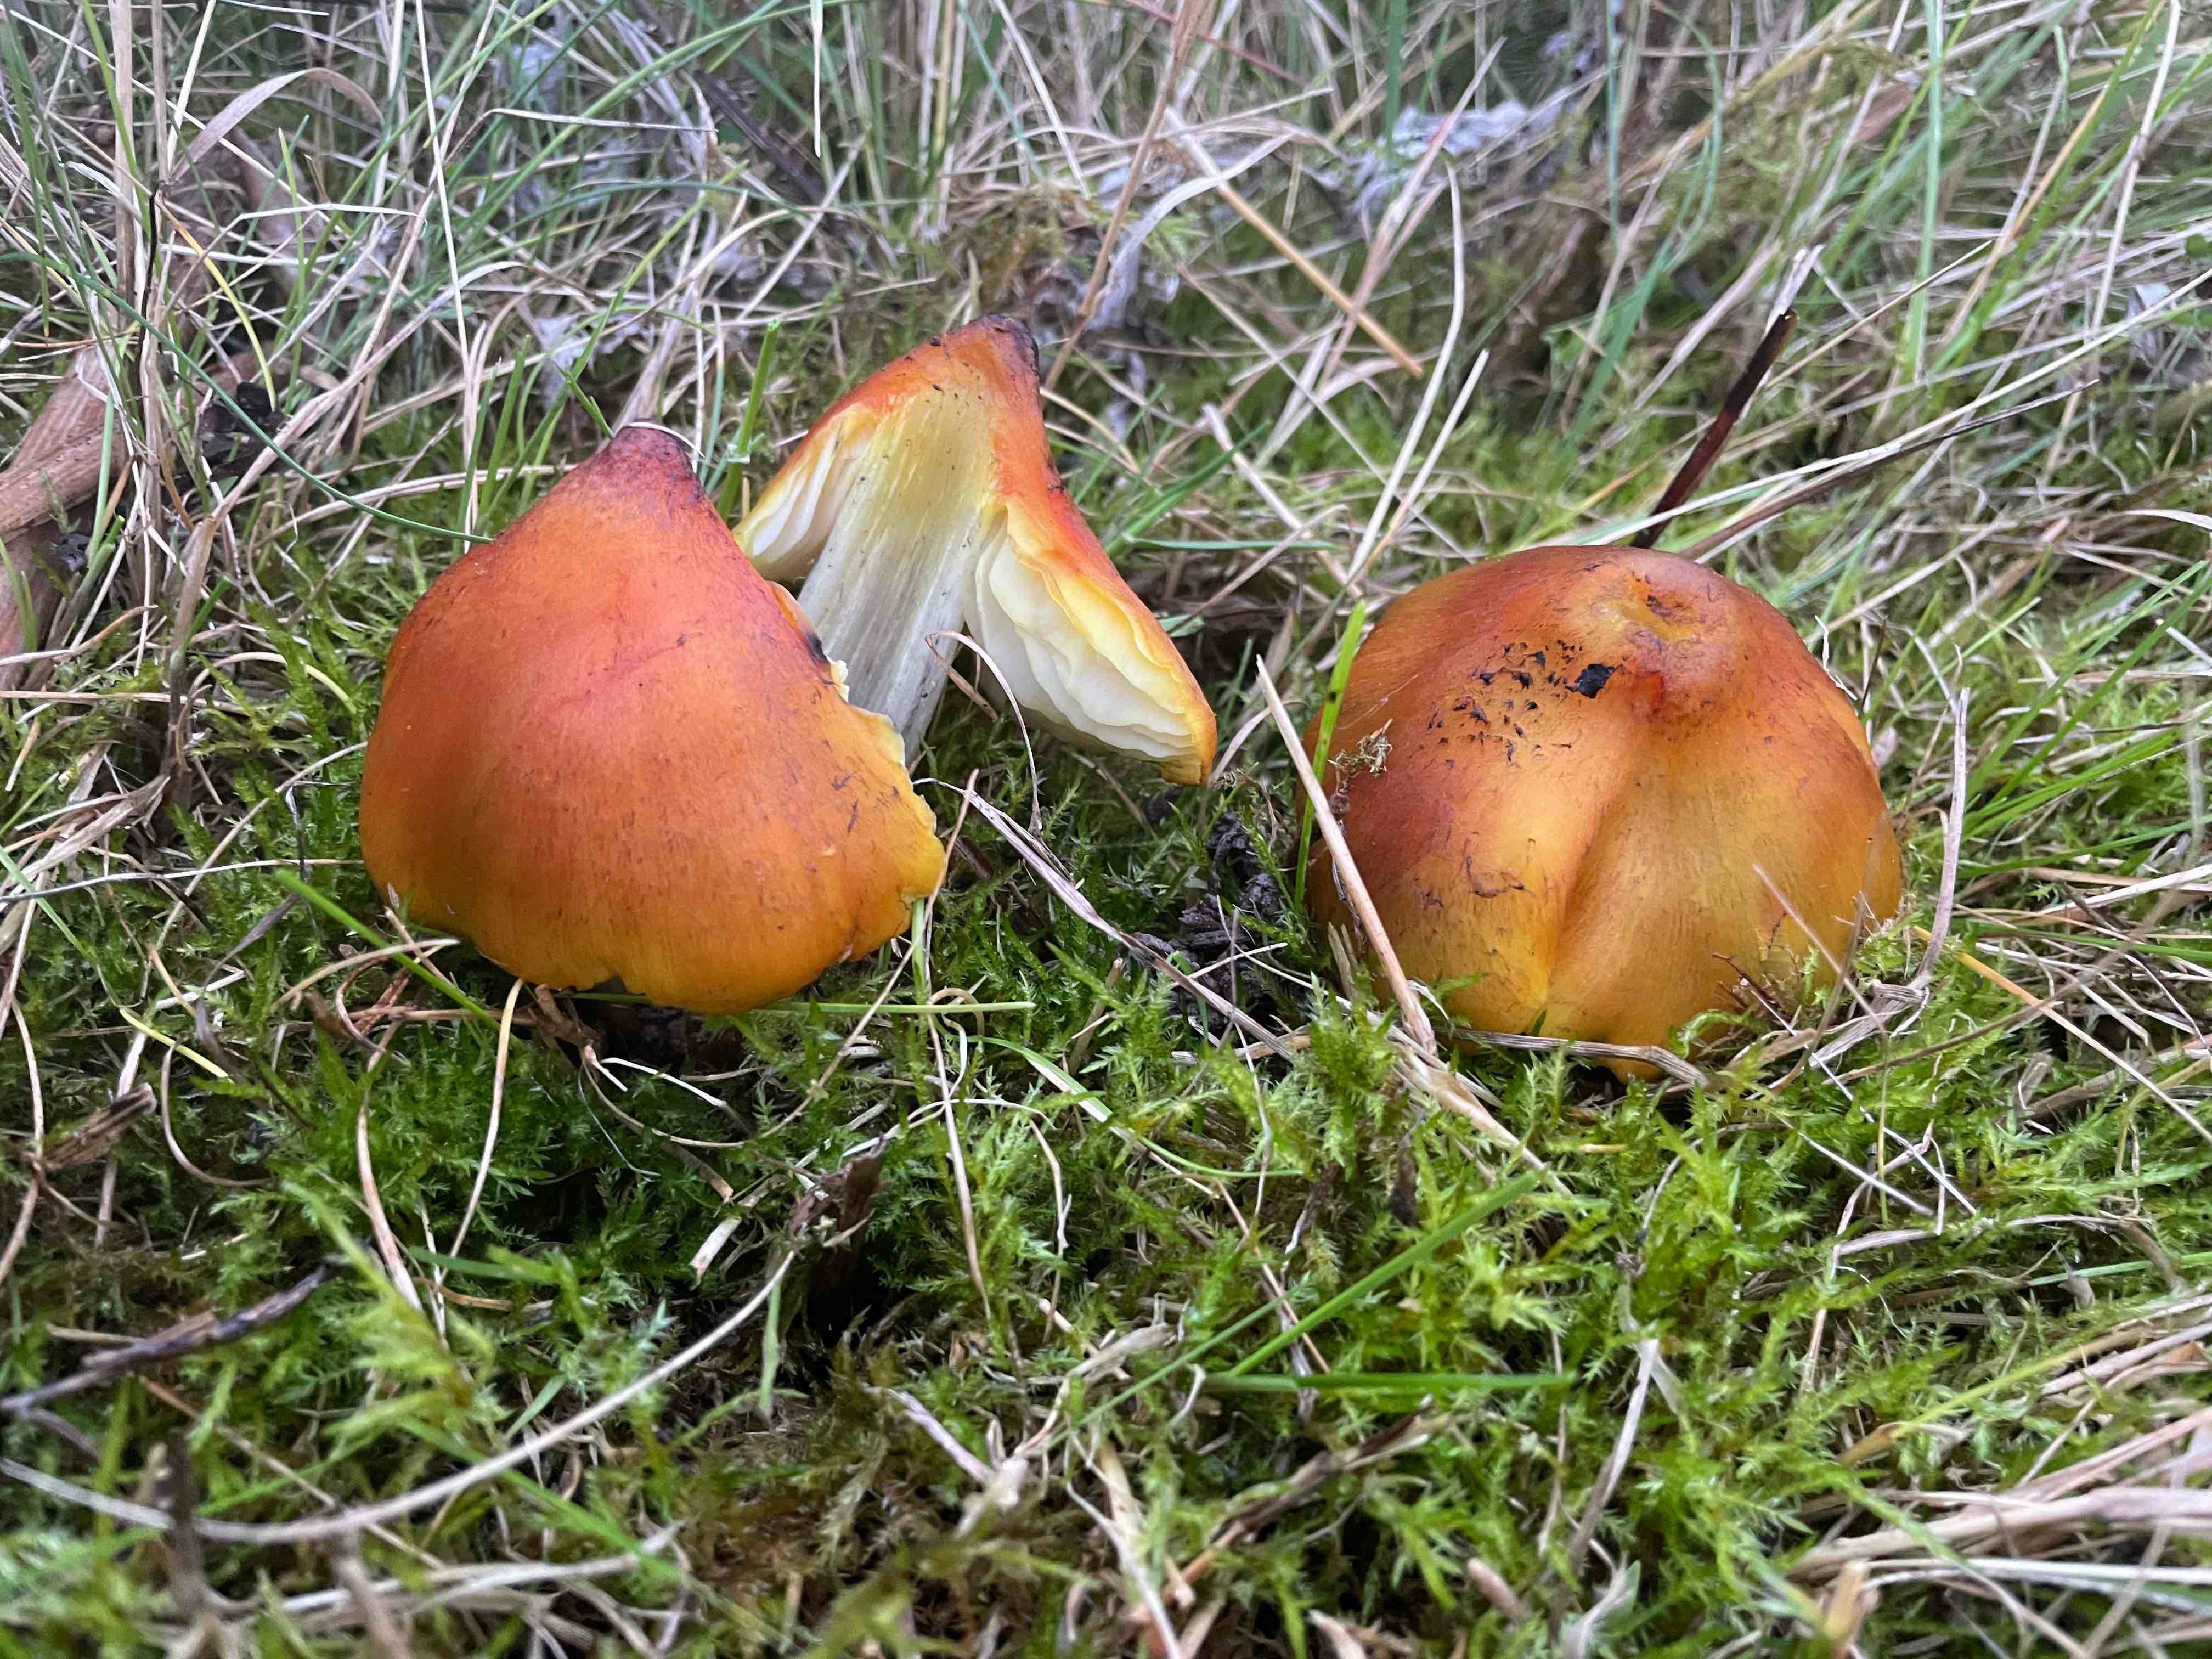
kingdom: Fungi
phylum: Basidiomycota
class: Agaricomycetes
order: Agaricales
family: Hygrophoraceae
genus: Hygrocybe
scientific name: Hygrocybe conica
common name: Blackening wax-cap
